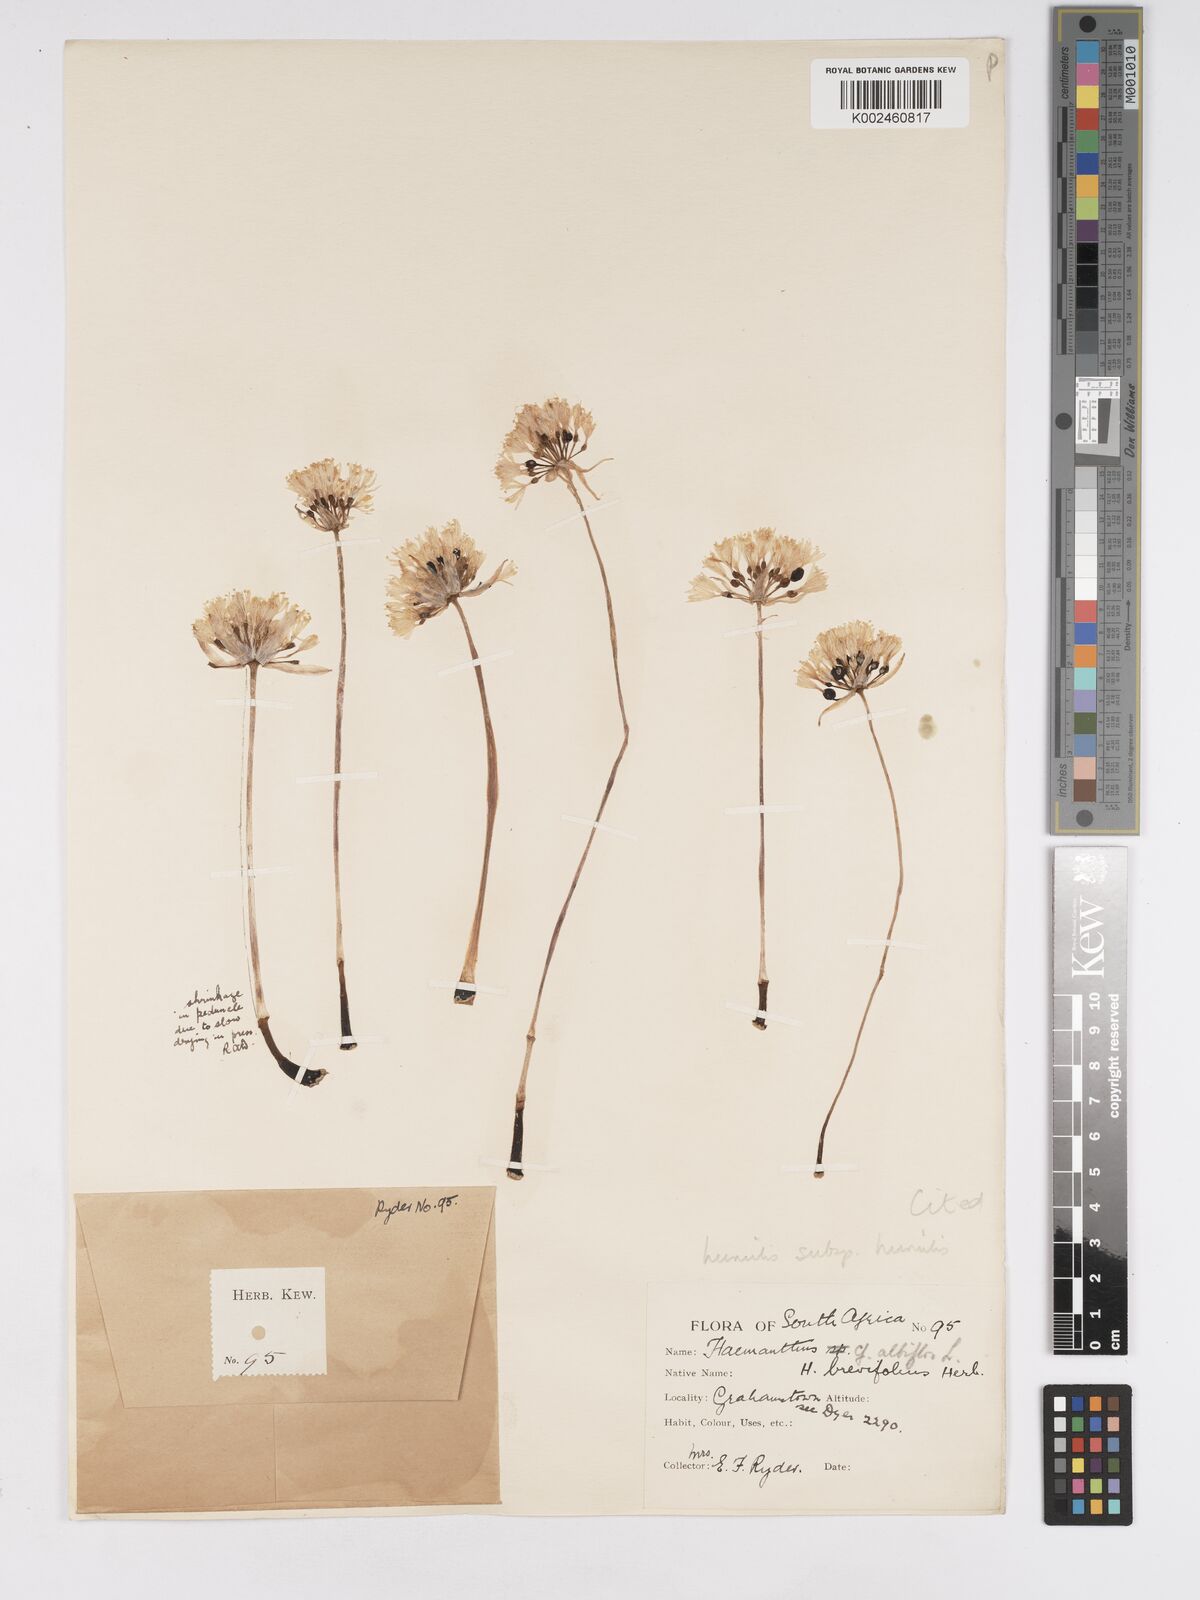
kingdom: Plantae
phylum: Tracheophyta
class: Liliopsida
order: Asparagales
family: Amaryllidaceae
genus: Haemanthus
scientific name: Haemanthus humilis
